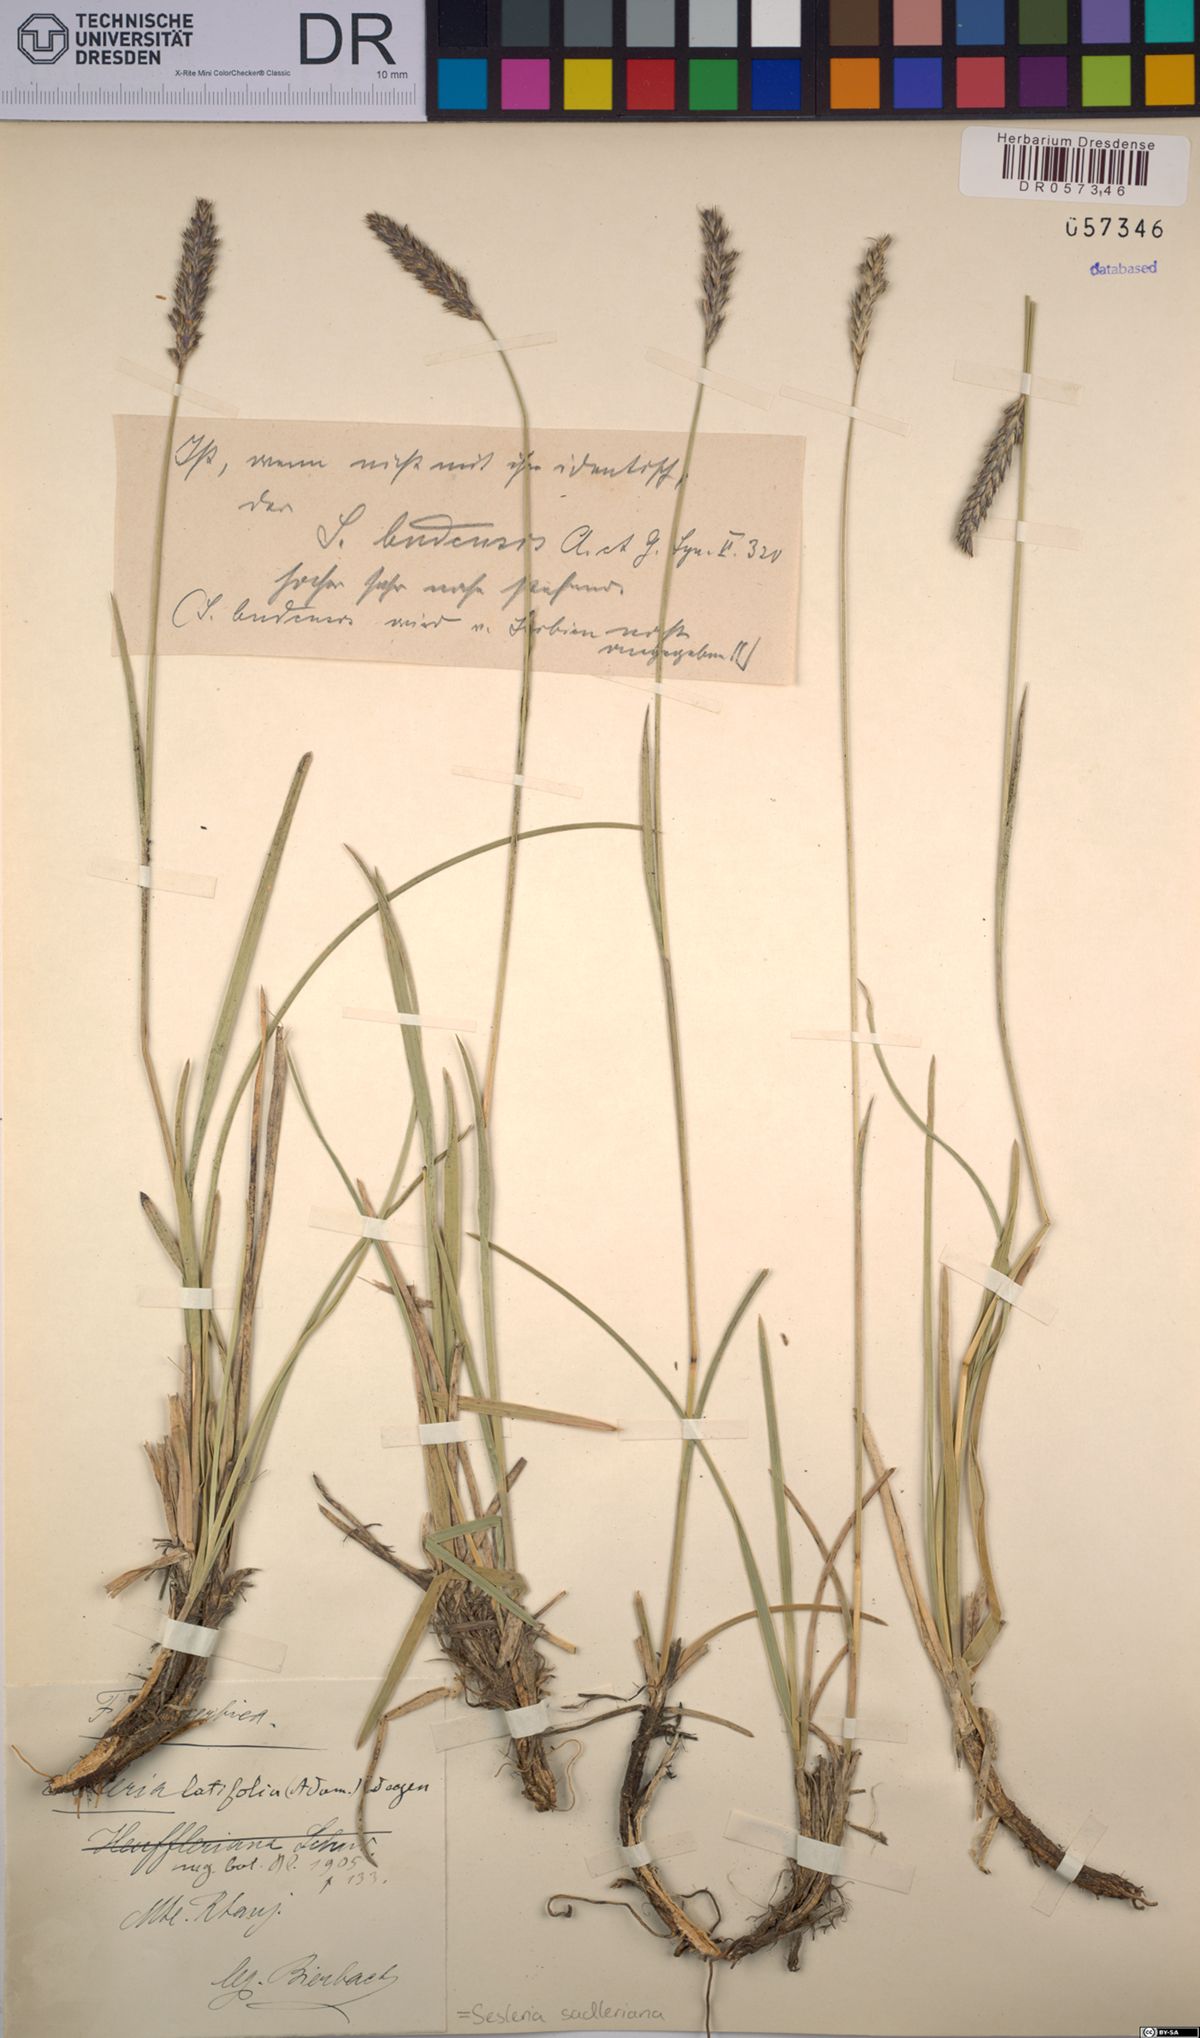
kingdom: Plantae
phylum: Tracheophyta
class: Liliopsida
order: Poales
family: Poaceae
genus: Sesleria
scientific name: Sesleria sadleriana
